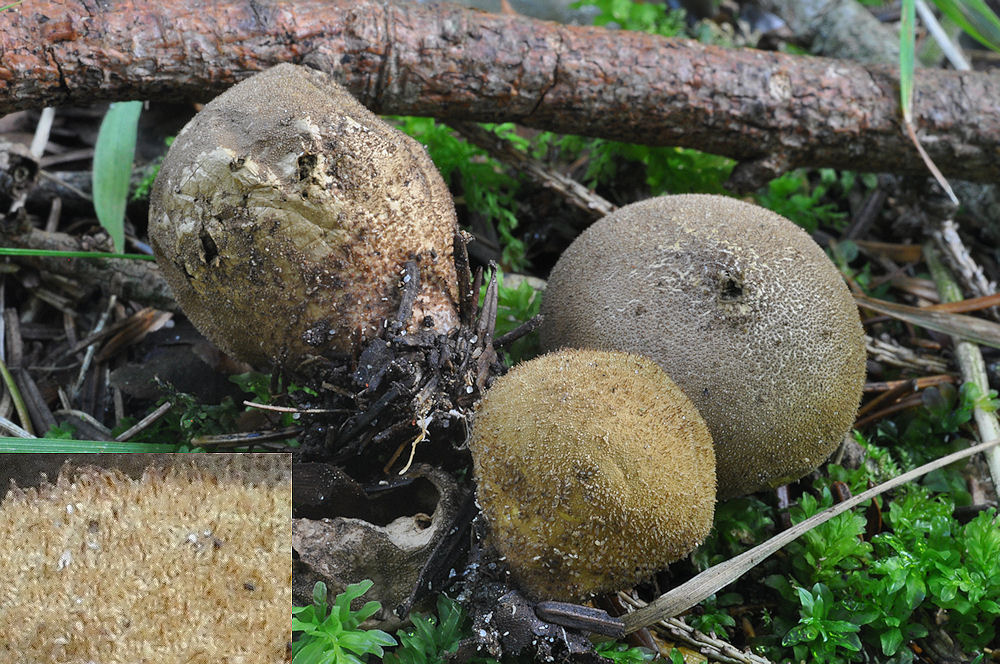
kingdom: Fungi
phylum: Basidiomycota
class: Agaricomycetes
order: Agaricales
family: Lycoperdaceae
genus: Lycoperdon
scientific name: Lycoperdon umbrinum
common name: umbrabrun støvbold
